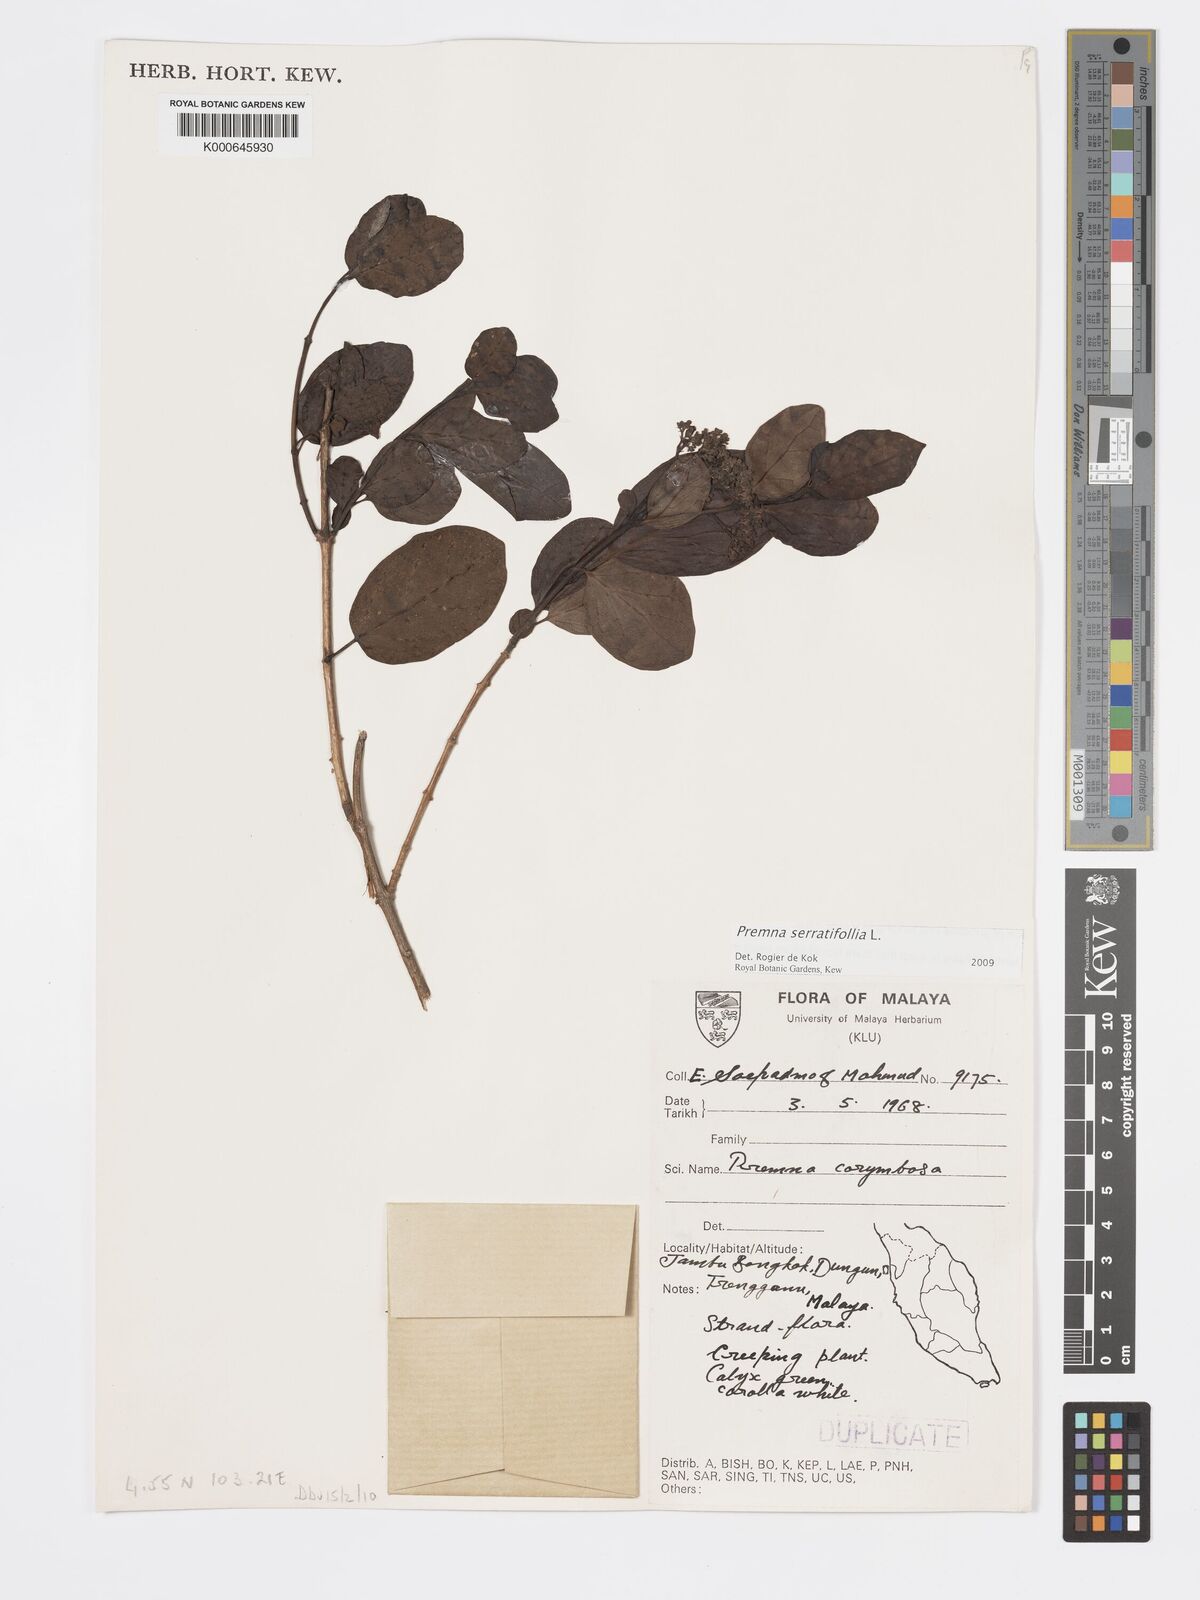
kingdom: Plantae
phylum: Tracheophyta
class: Magnoliopsida
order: Lamiales
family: Lamiaceae
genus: Premna
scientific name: Premna serratifolia
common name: Bastard guelder
